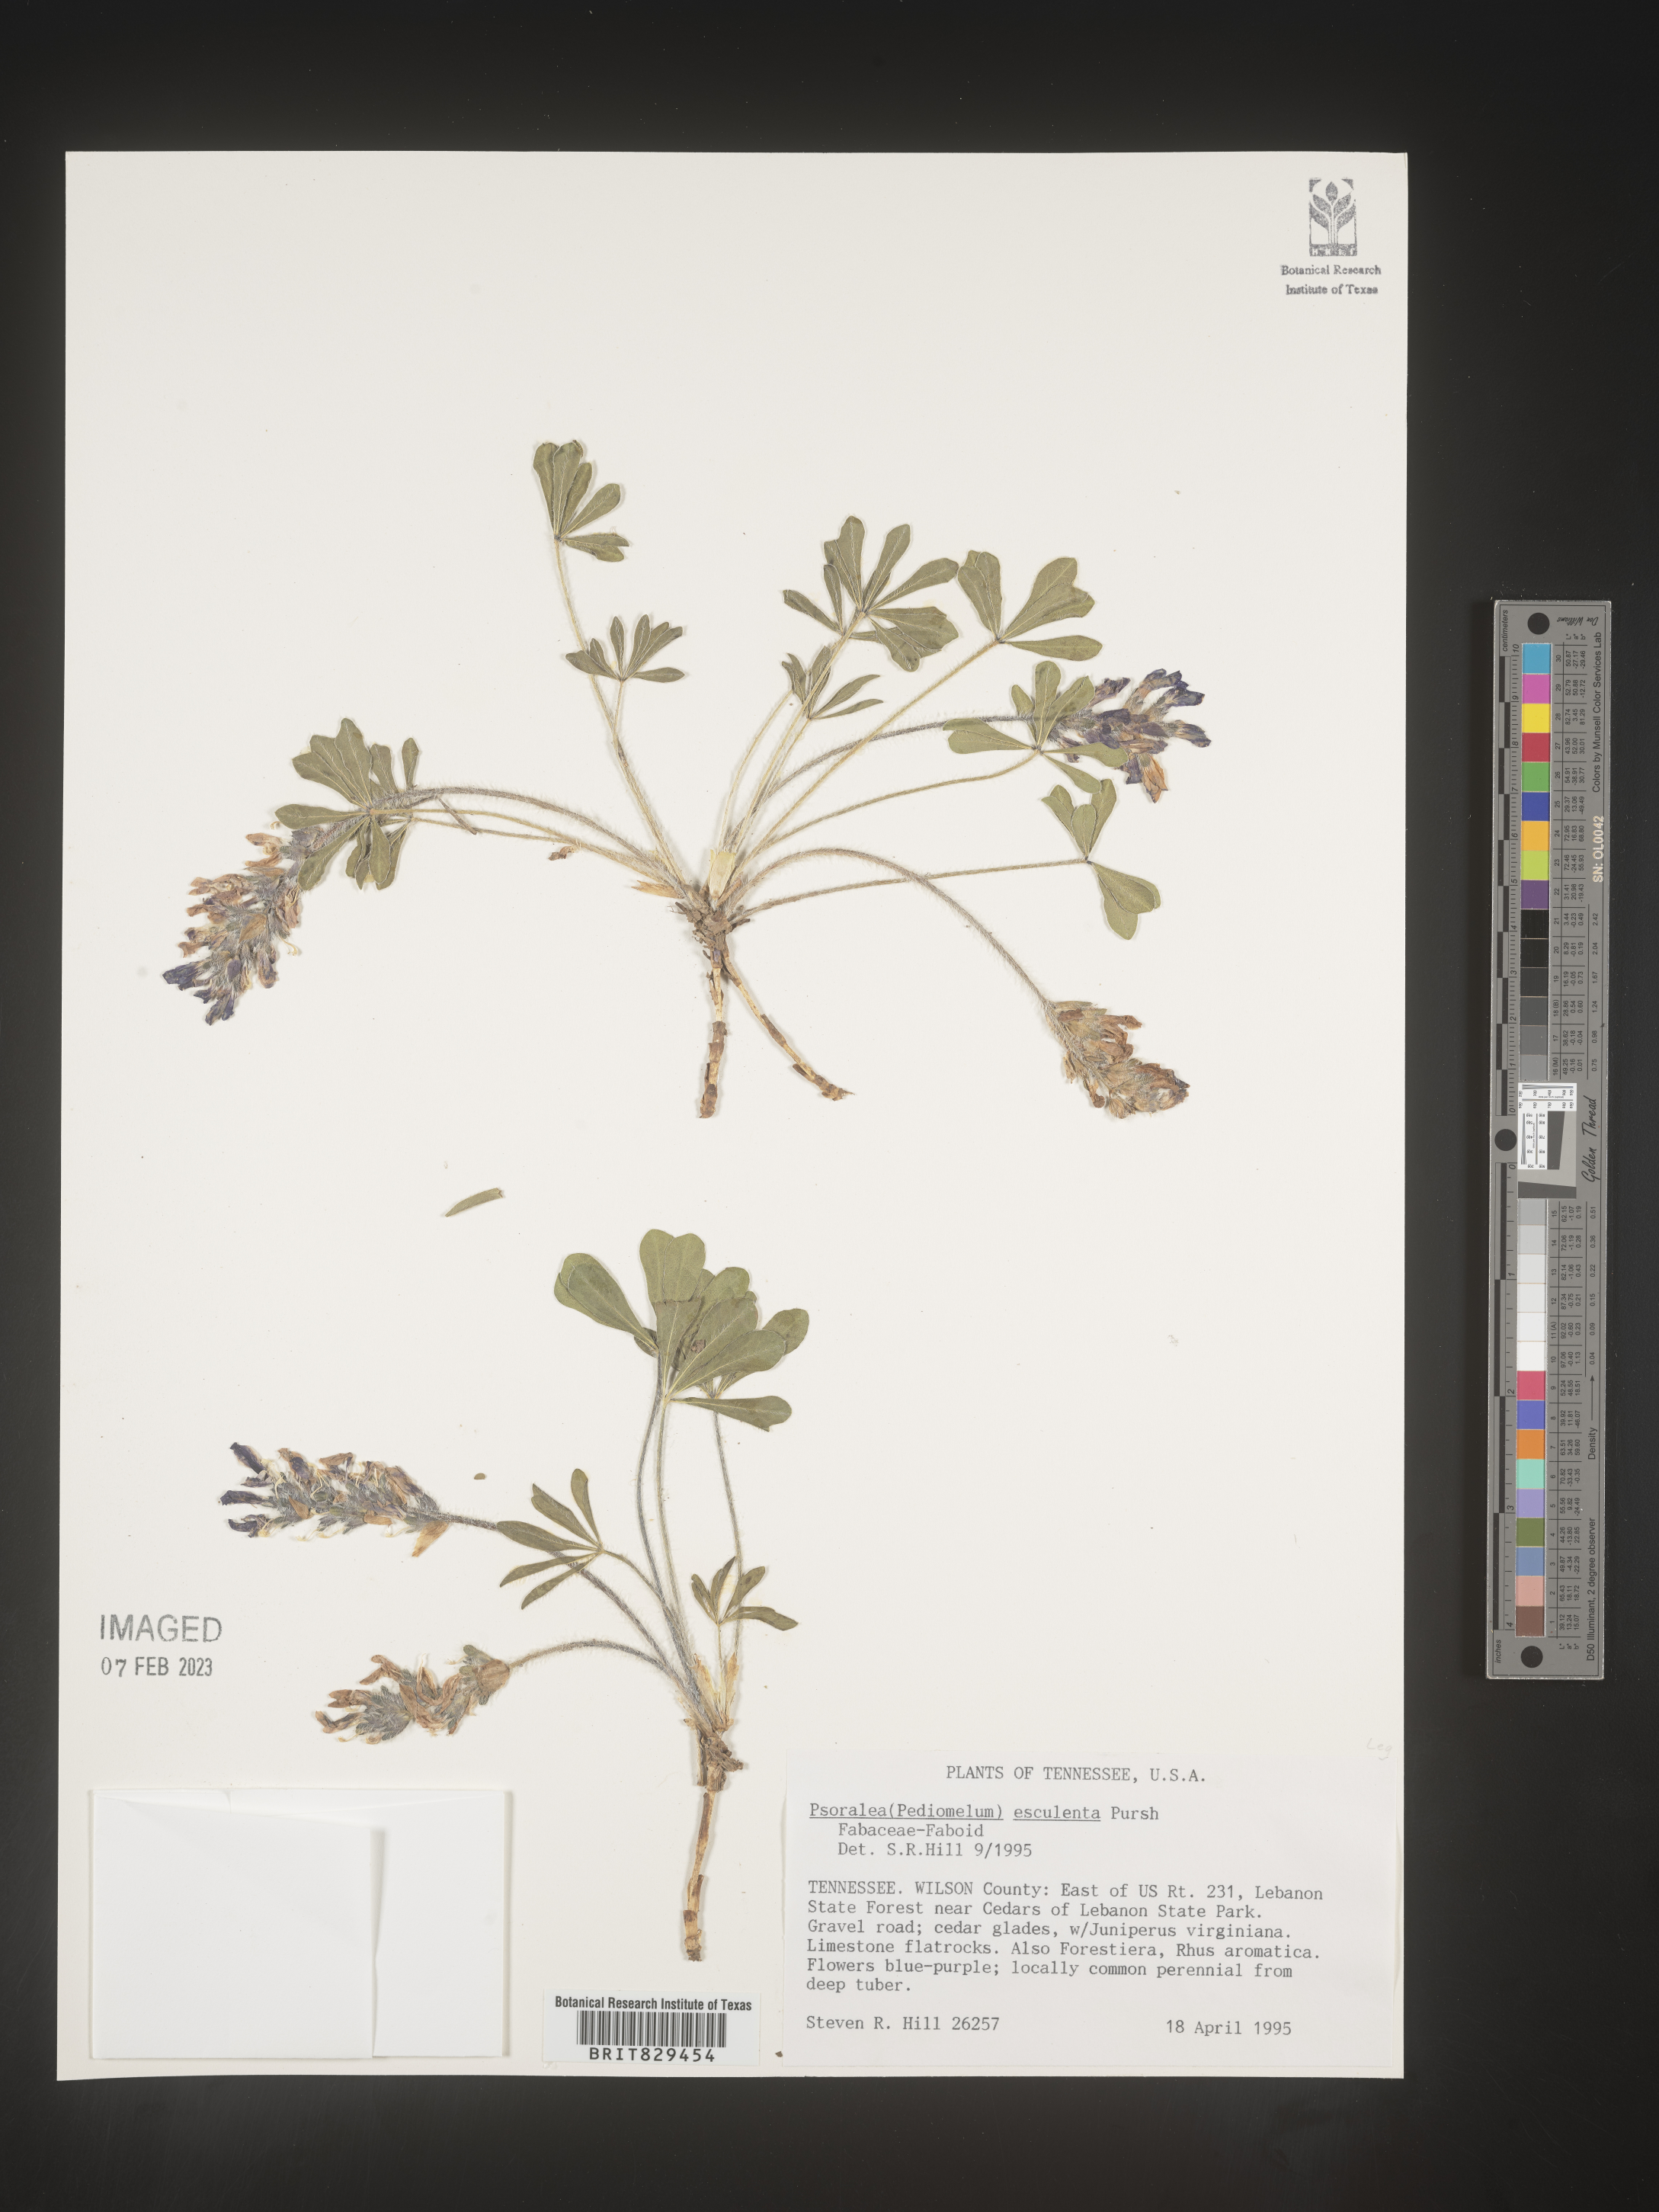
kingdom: Plantae
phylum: Tracheophyta
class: Magnoliopsida
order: Fabales
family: Fabaceae
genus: Psoralea
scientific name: Psoralea
